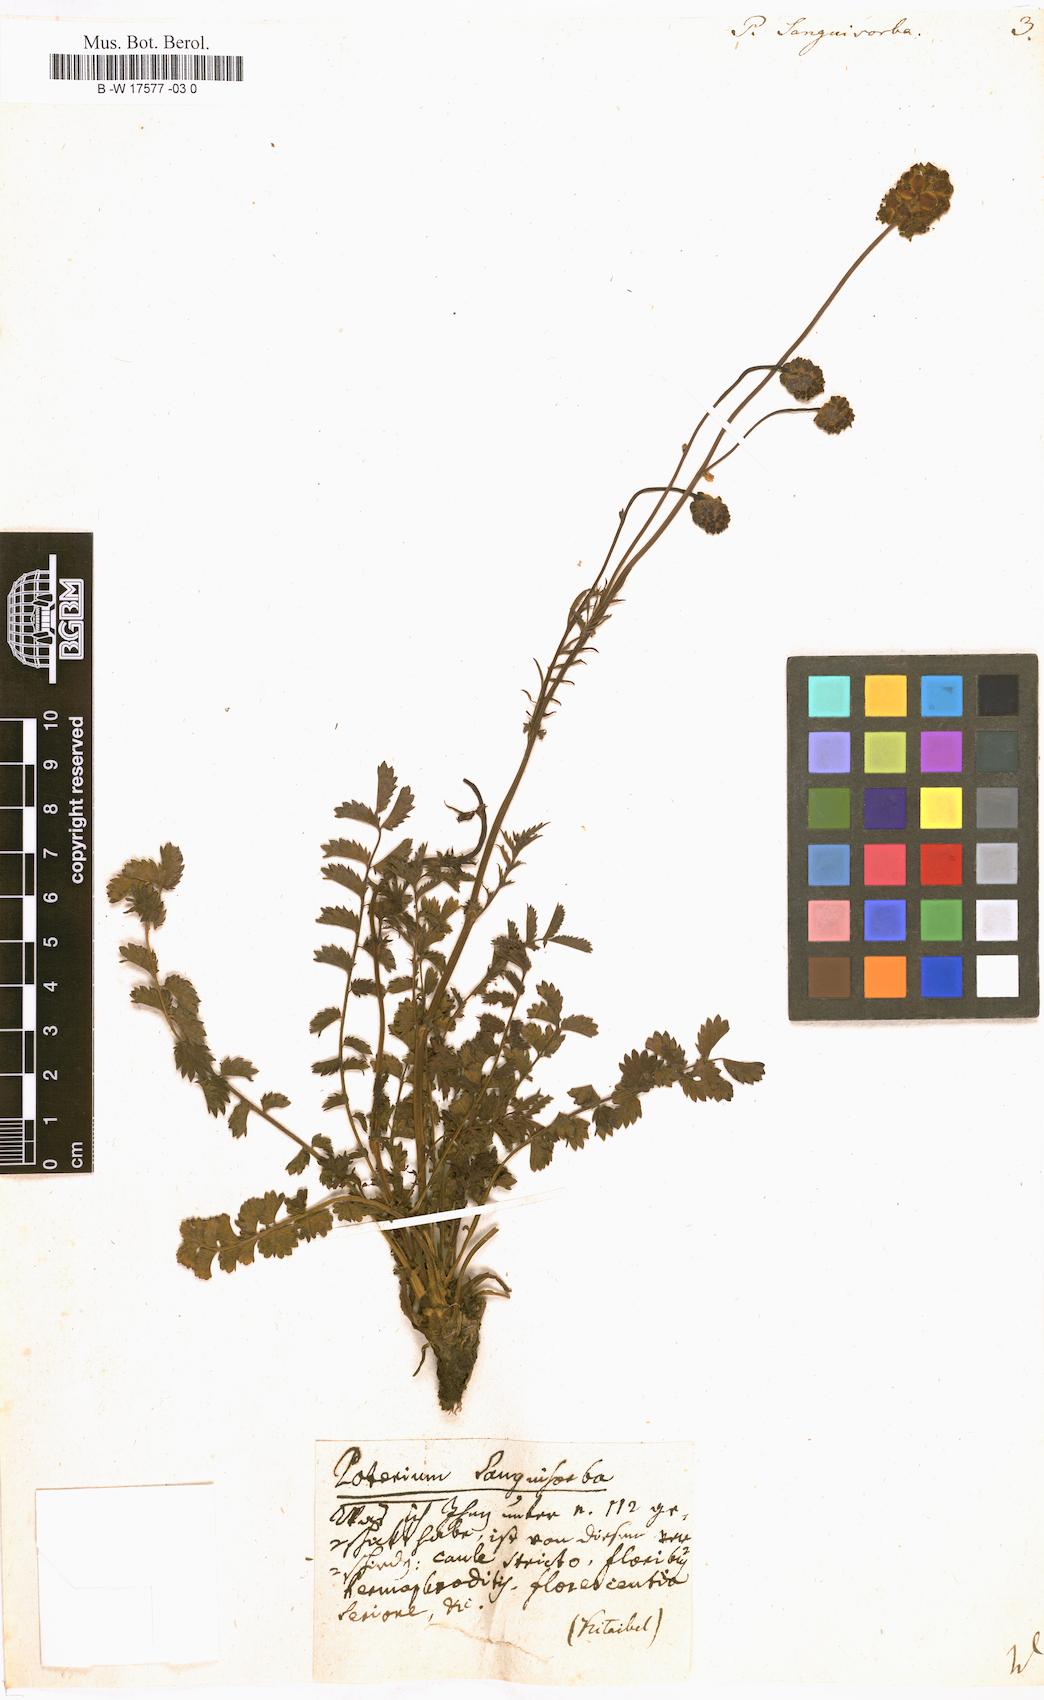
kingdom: Plantae
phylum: Tracheophyta
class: Magnoliopsida
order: Rosales
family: Rosaceae
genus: Poterium
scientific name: Poterium sanguisorba
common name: Salad burnet
